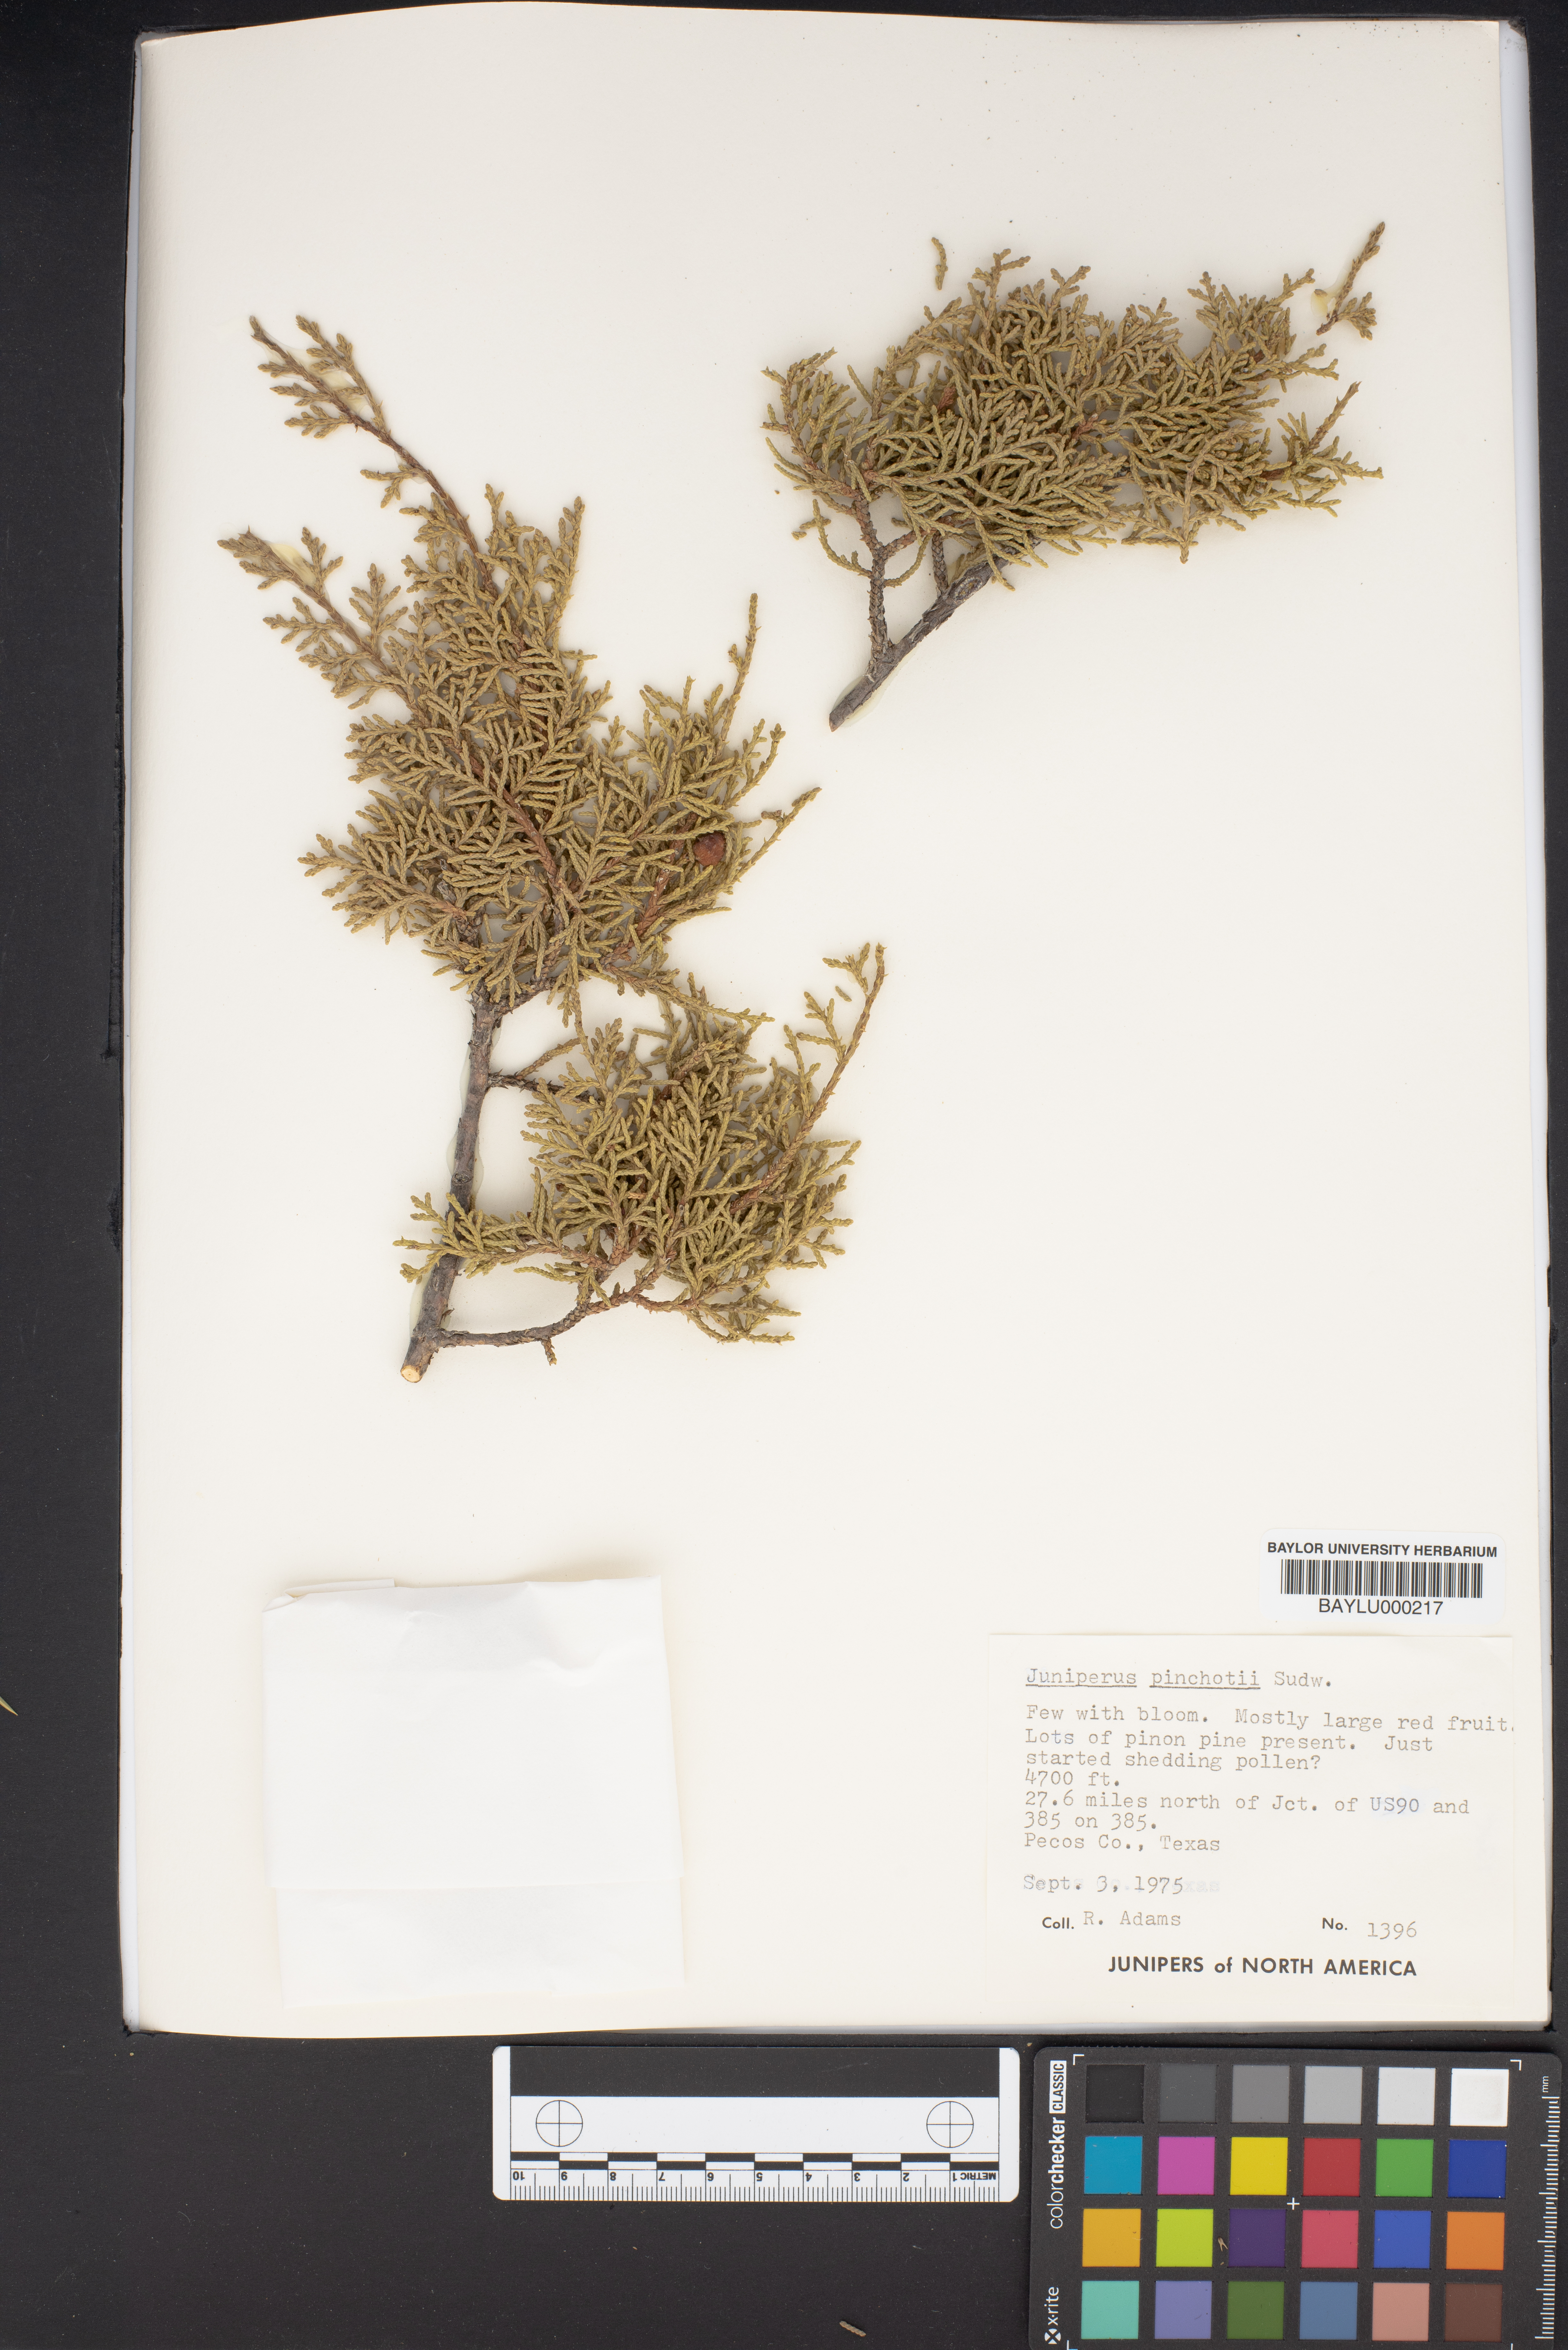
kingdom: Plantae
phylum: Tracheophyta
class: Pinopsida
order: Pinales
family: Cupressaceae
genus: Juniperus
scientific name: Juniperus pinchotii
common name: Pinchot juniper
